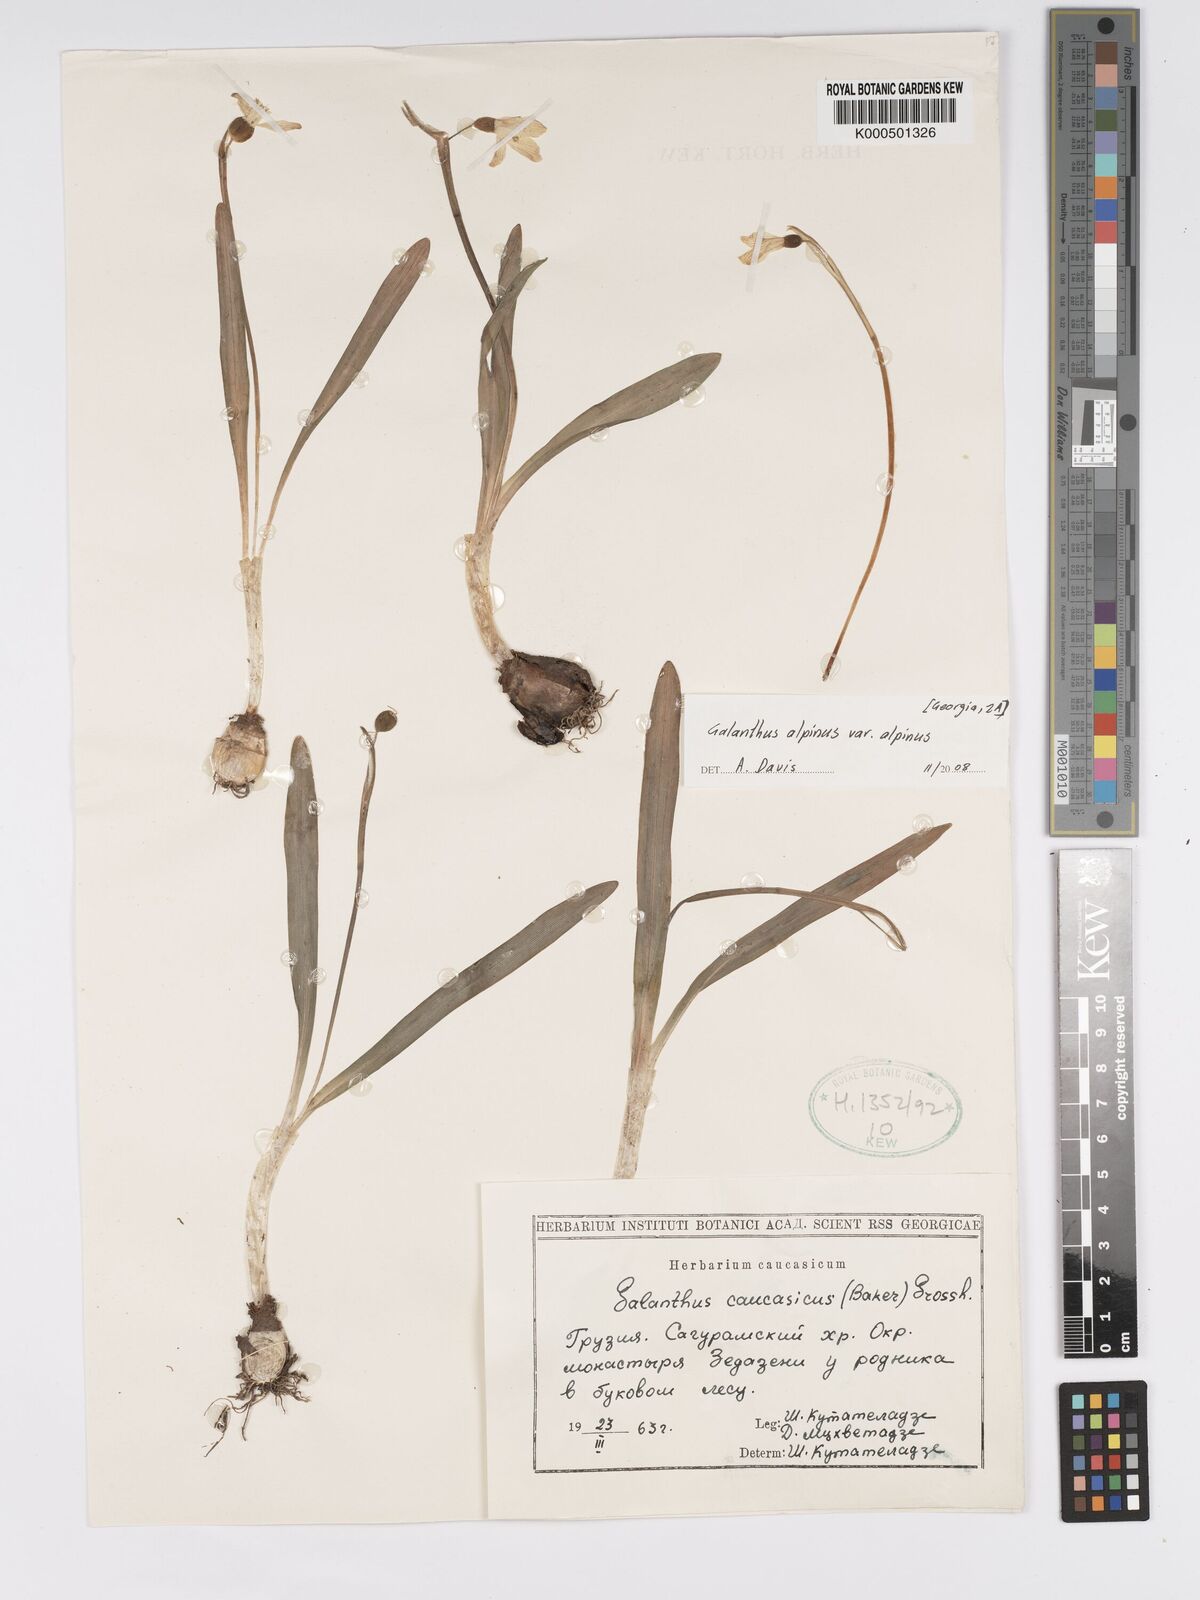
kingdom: Plantae
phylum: Tracheophyta
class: Liliopsida
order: Asparagales
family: Amaryllidaceae
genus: Galanthus
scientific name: Galanthus alpinus
